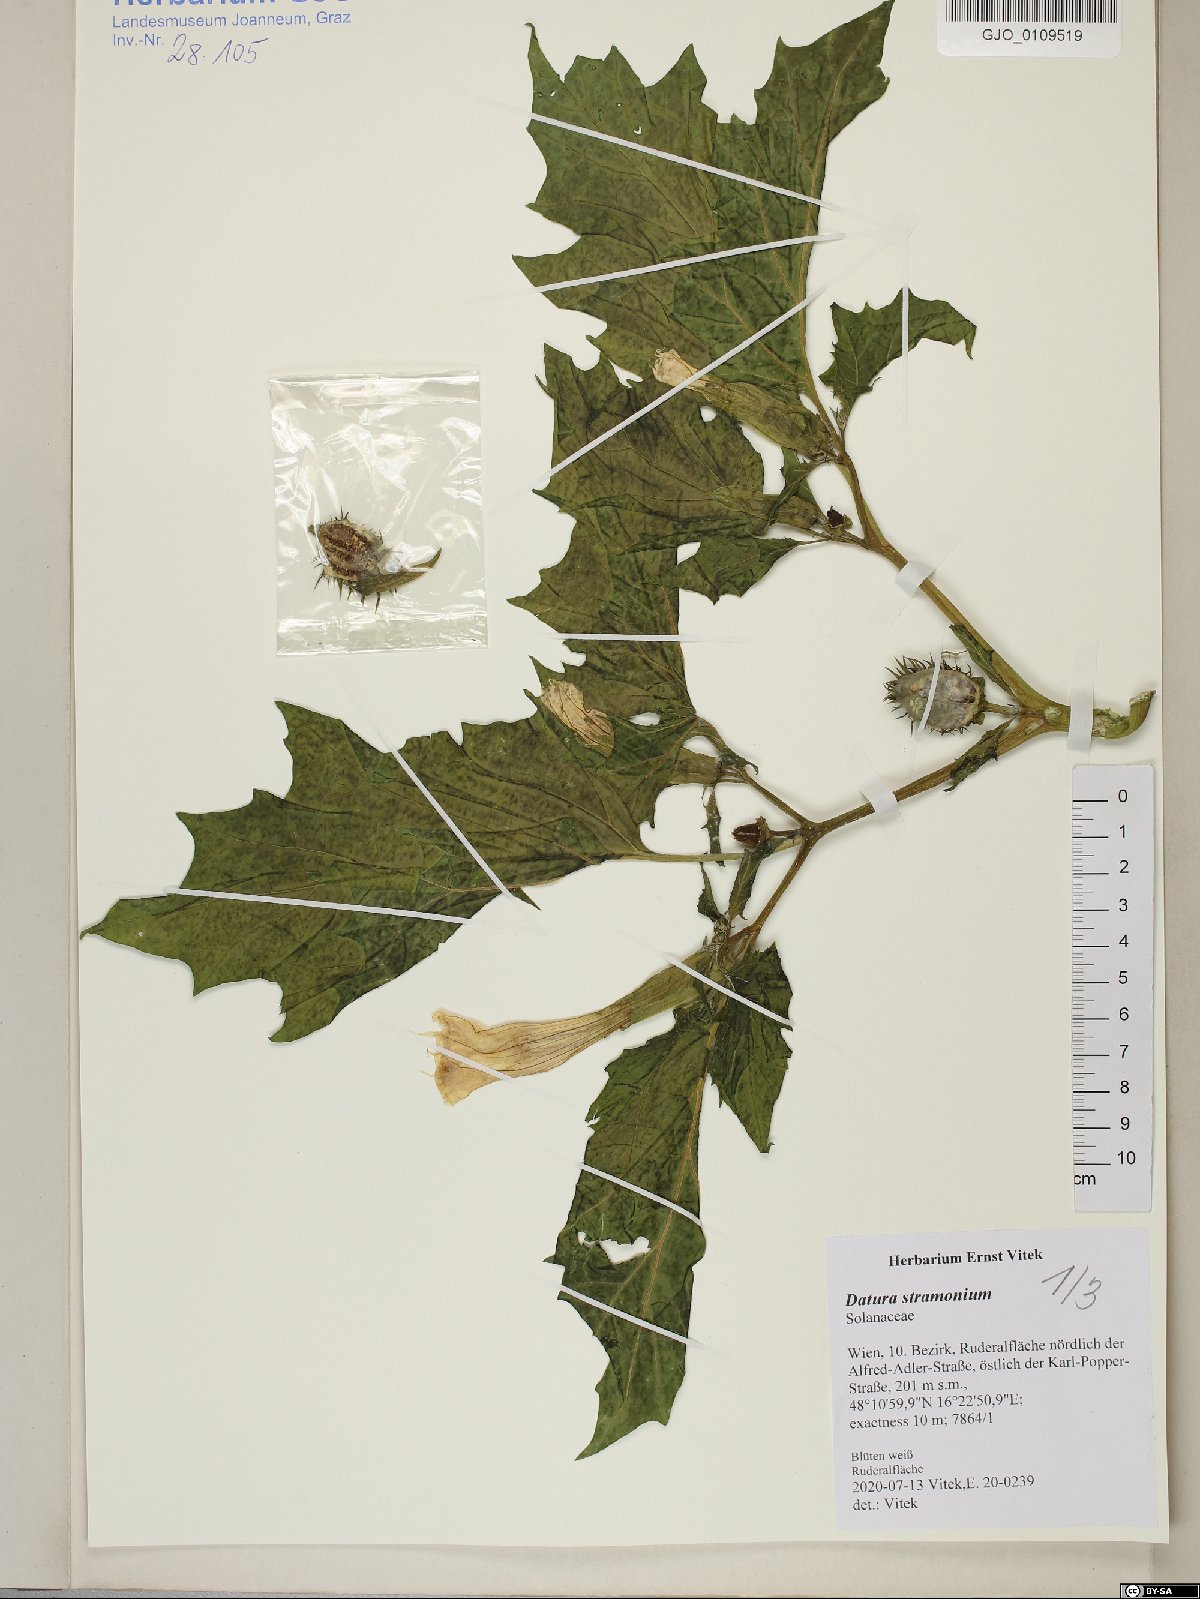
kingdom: Plantae
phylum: Tracheophyta
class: Magnoliopsida
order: Solanales
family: Solanaceae
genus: Datura
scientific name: Datura stramonium
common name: Thorn-apple
